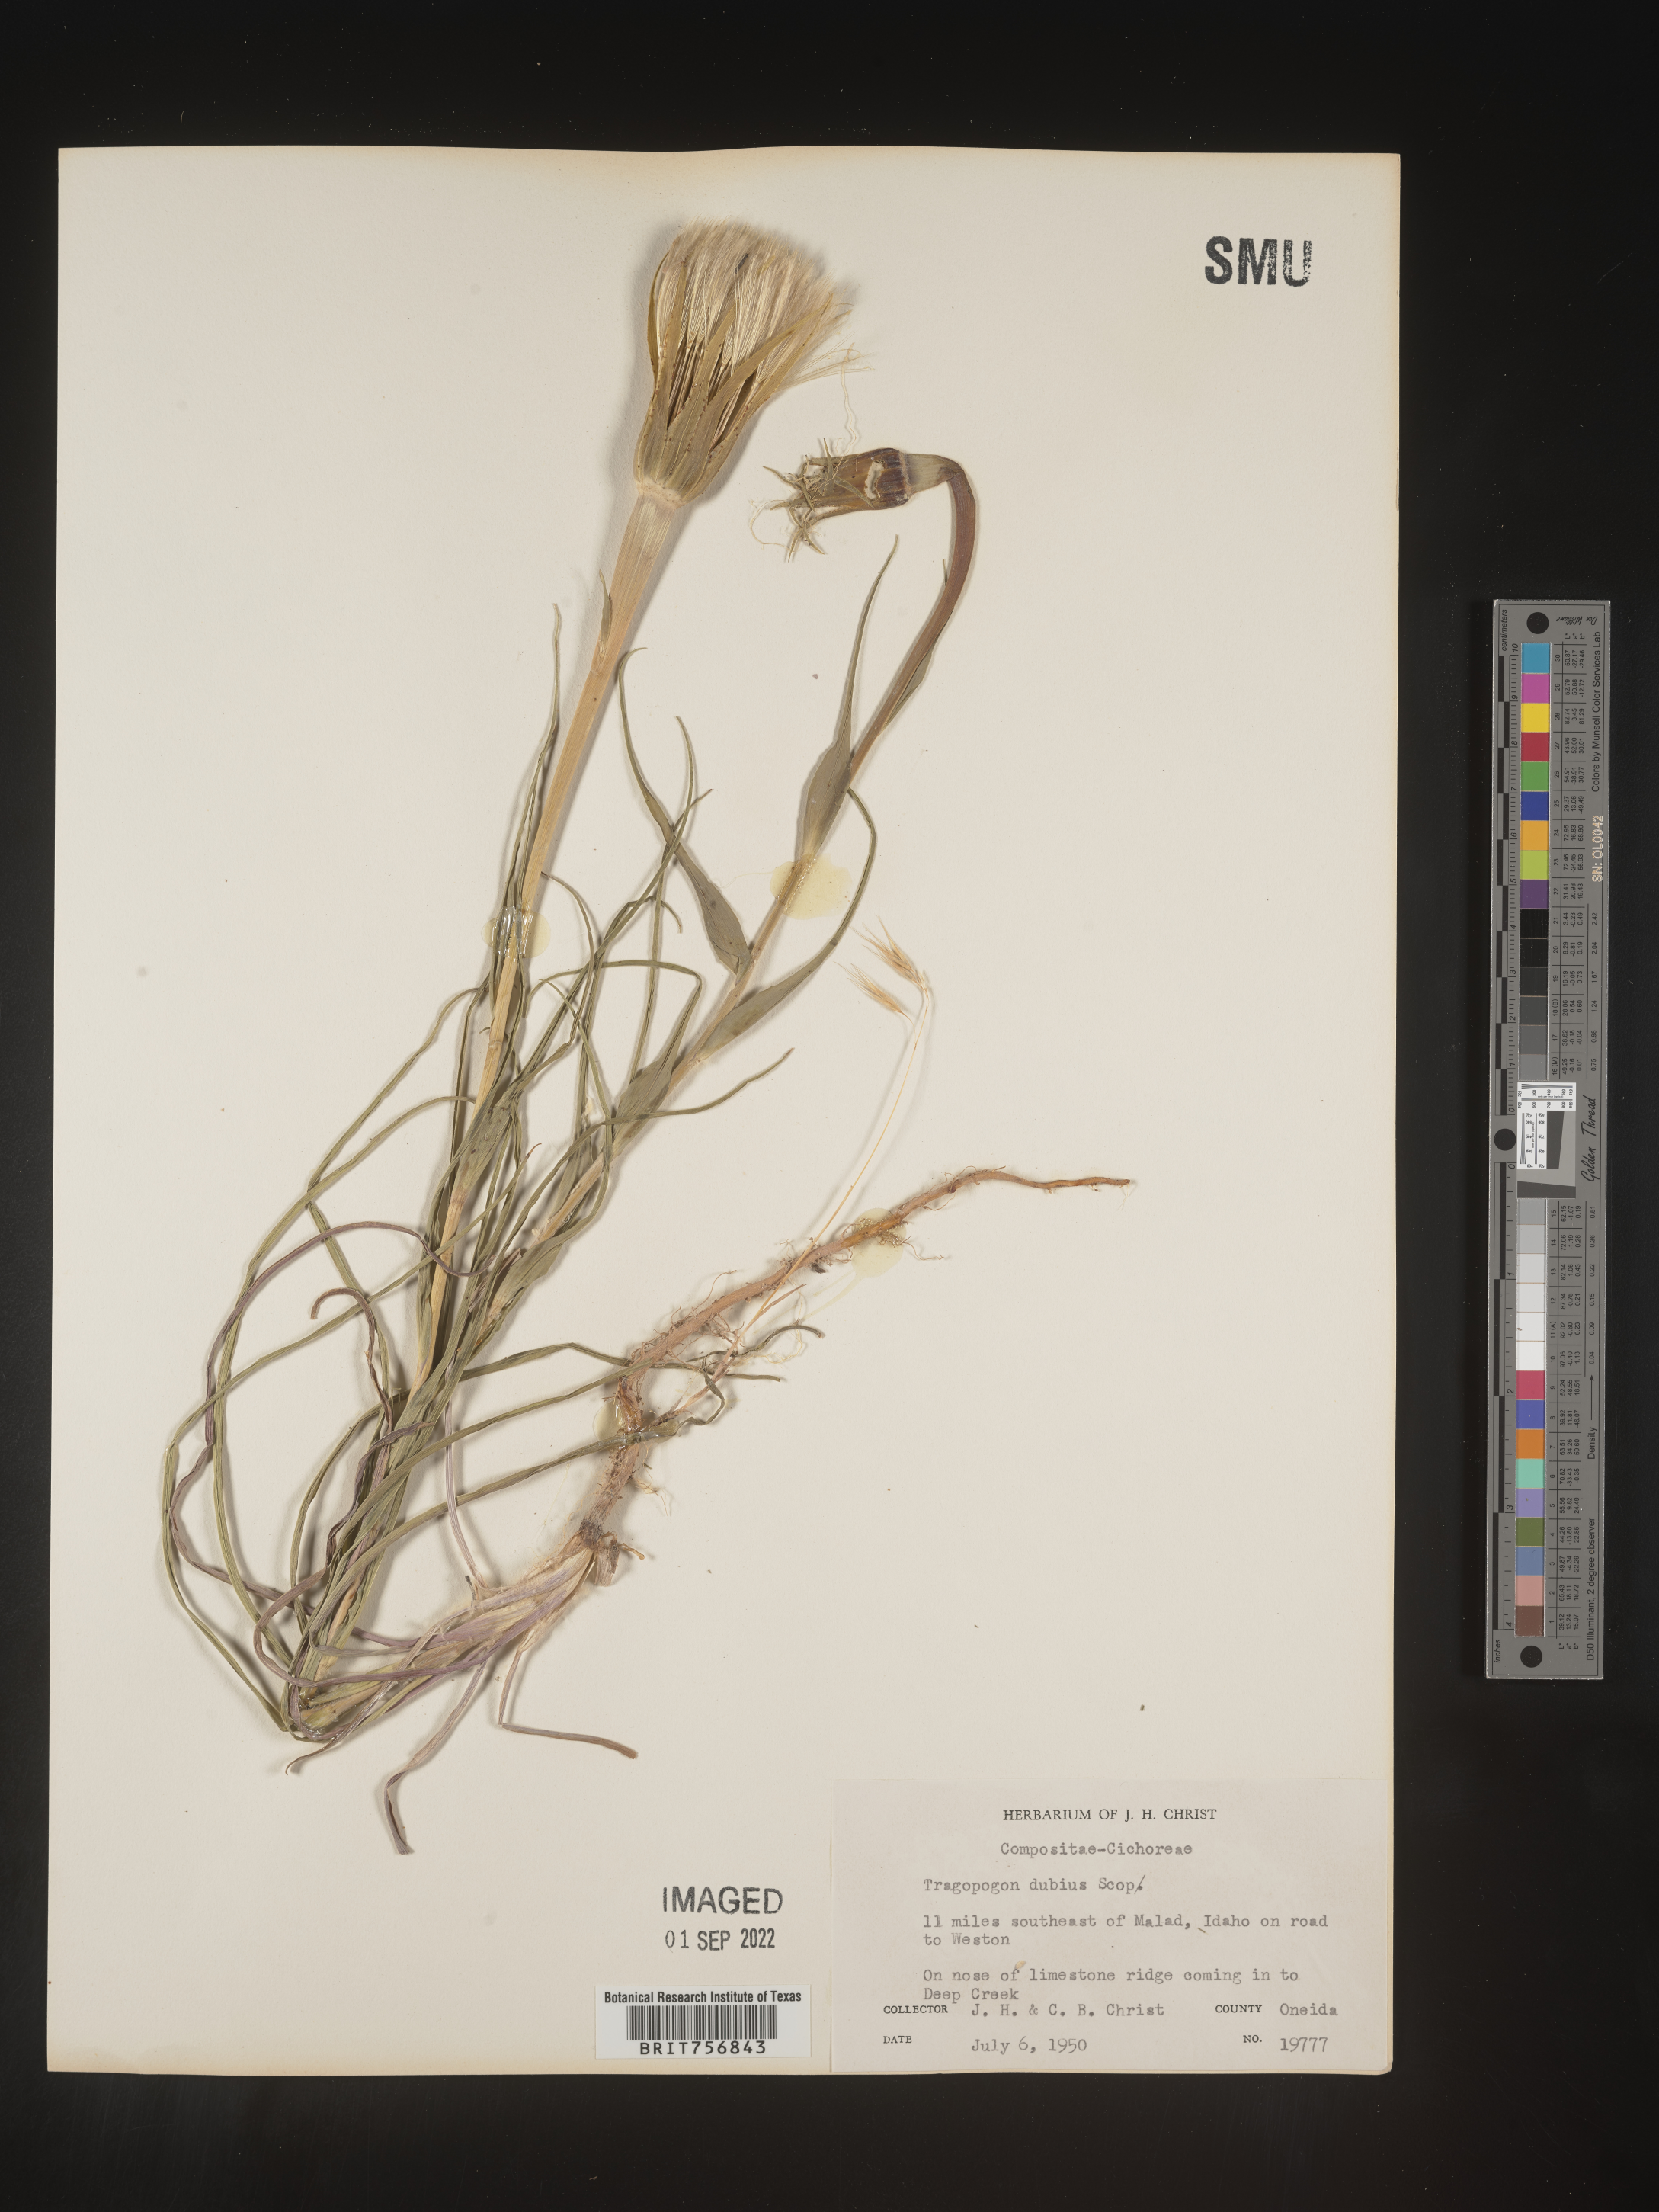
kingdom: Plantae
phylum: Tracheophyta
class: Magnoliopsida
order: Asterales
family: Asteraceae
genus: Tragopogon
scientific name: Tragopogon dubius
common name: Yellow salsify
